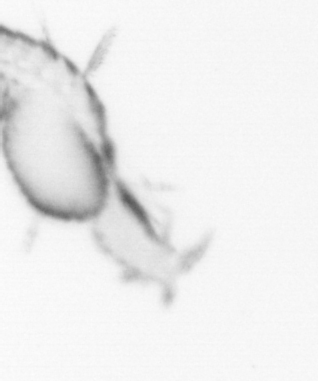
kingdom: Animalia
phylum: Annelida
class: Polychaeta
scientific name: Polychaeta
